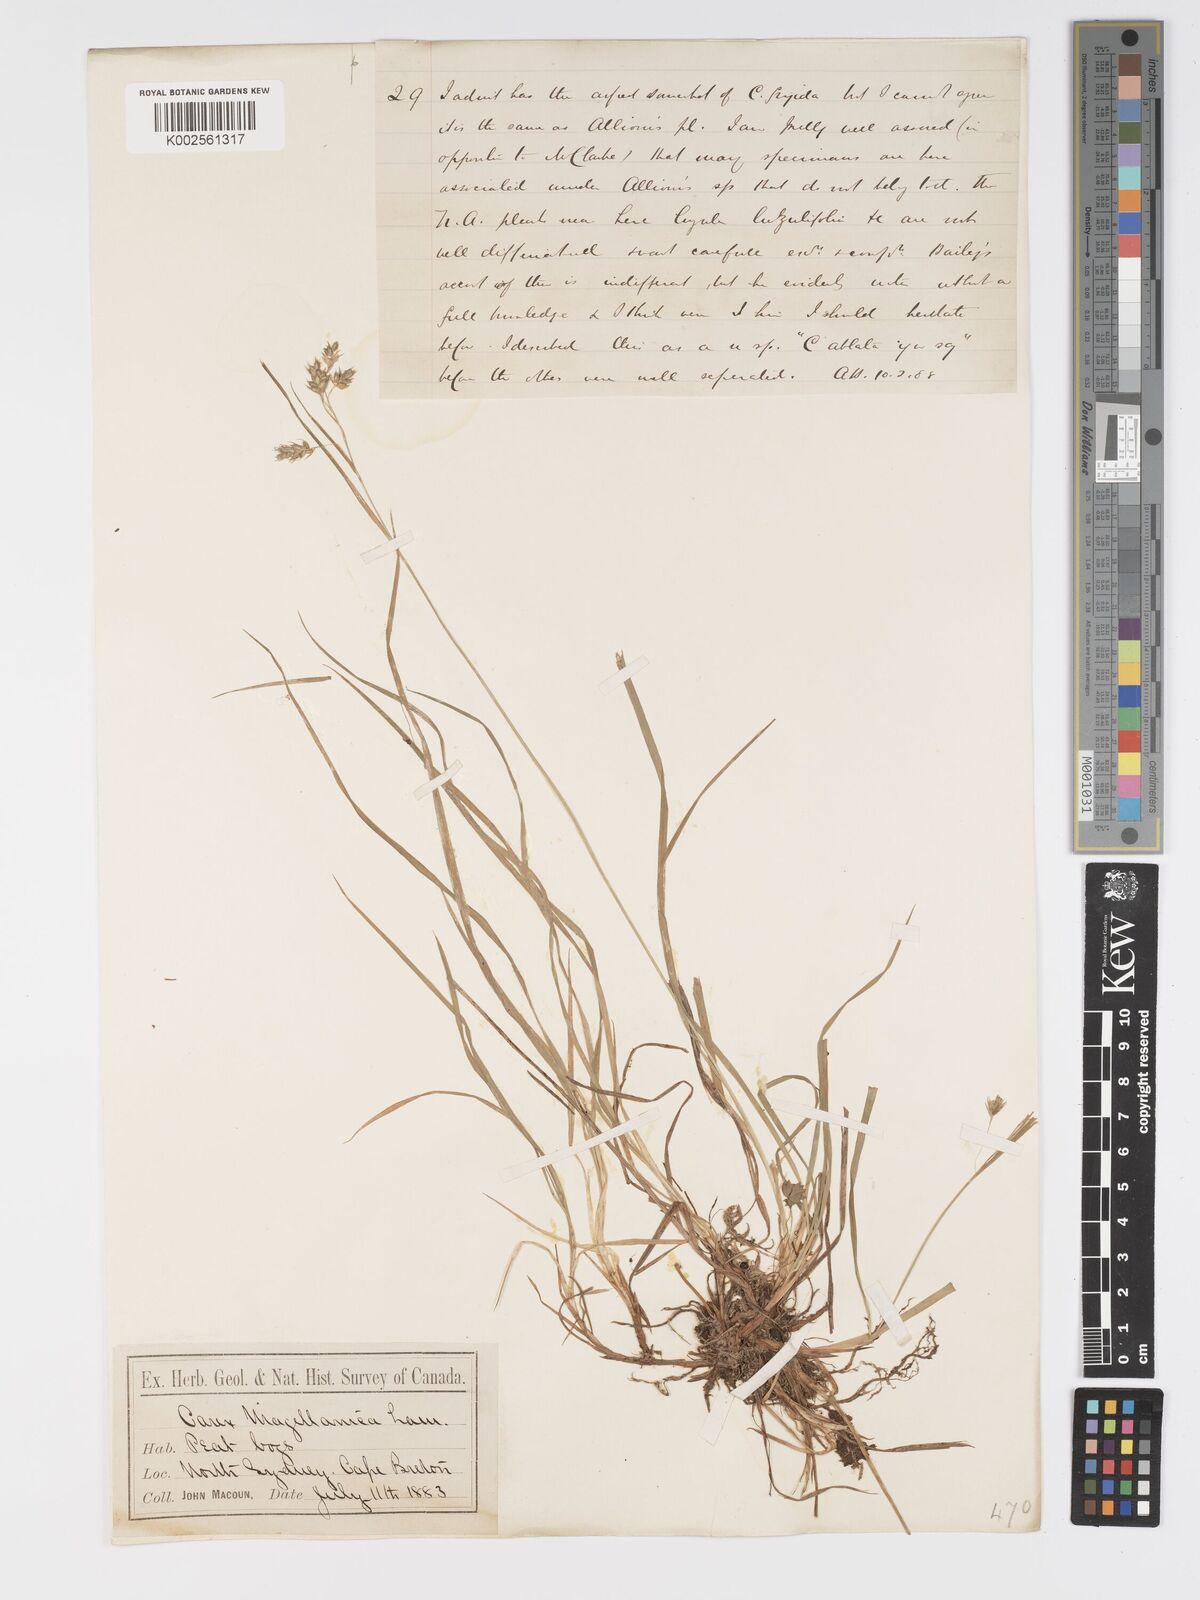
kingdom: Plantae
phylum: Tracheophyta
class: Liliopsida
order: Poales
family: Cyperaceae
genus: Carex
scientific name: Carex magellanica
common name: Bog sedge
